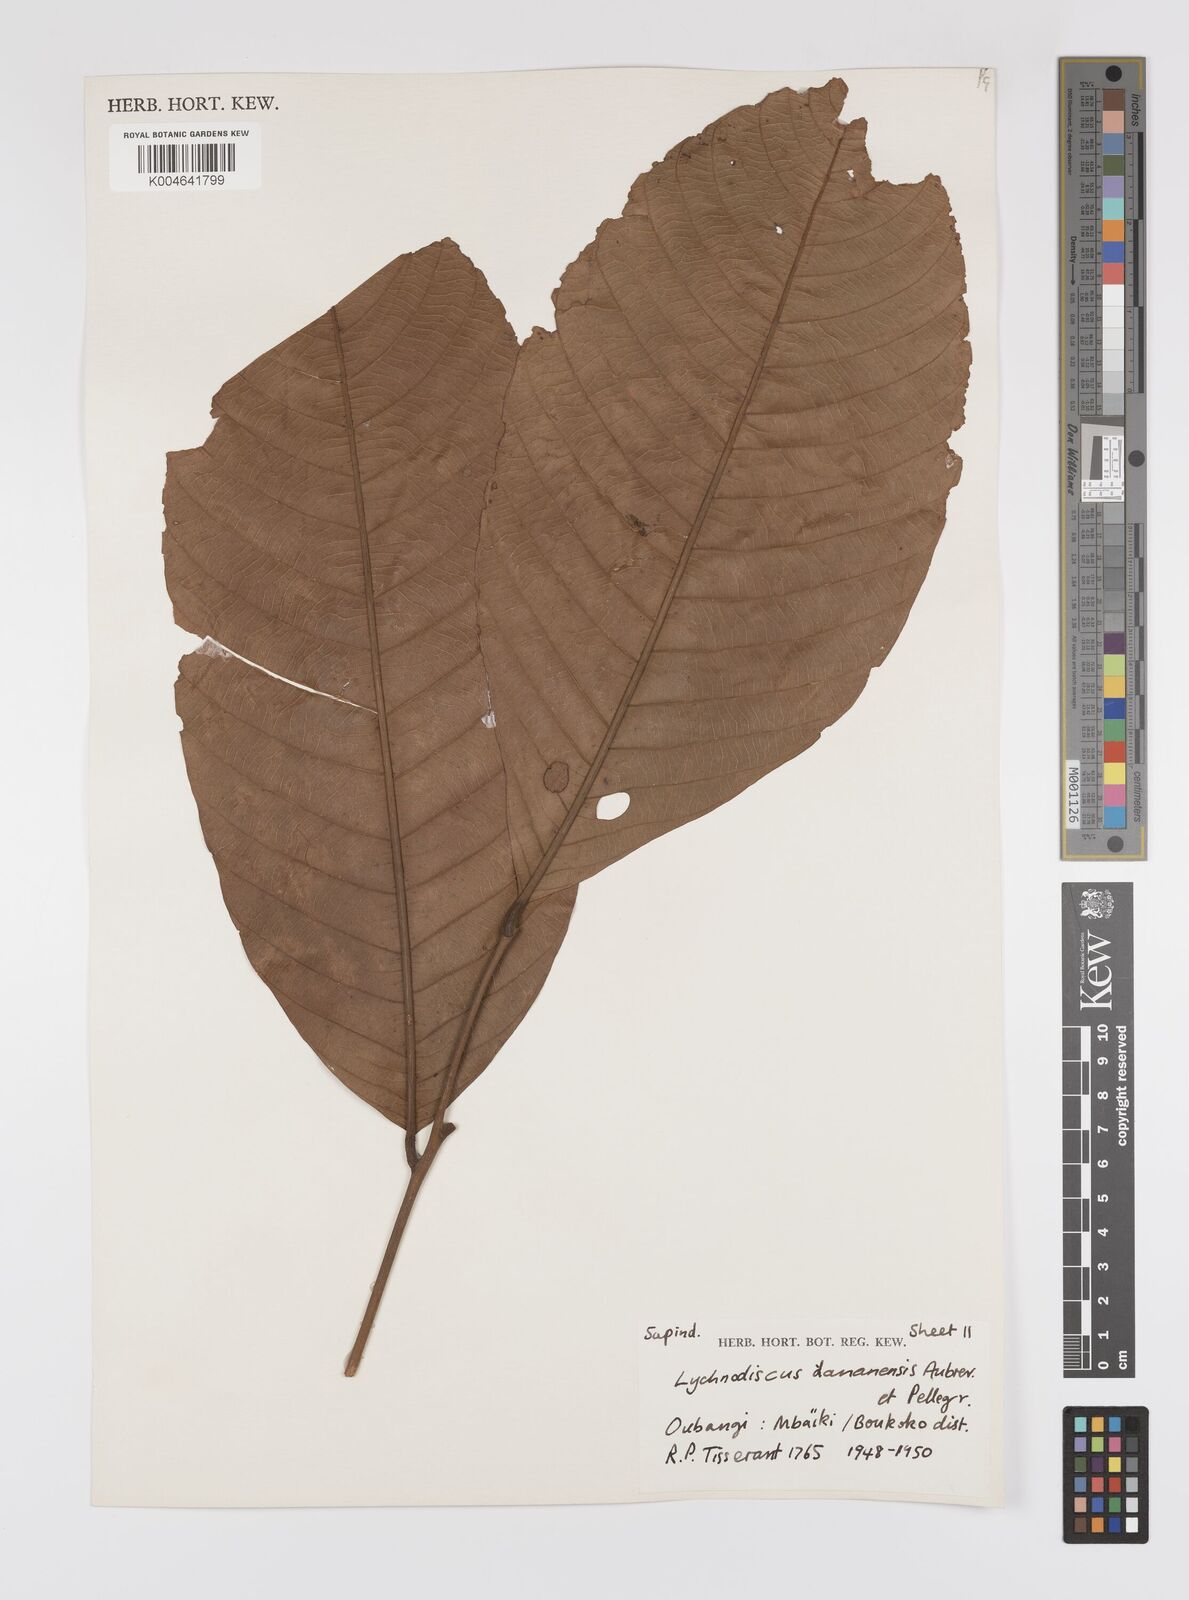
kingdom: Plantae
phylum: Tracheophyta
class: Magnoliopsida
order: Sapindales
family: Sapindaceae
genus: Lychnodiscus
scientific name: Lychnodiscus dananensis
